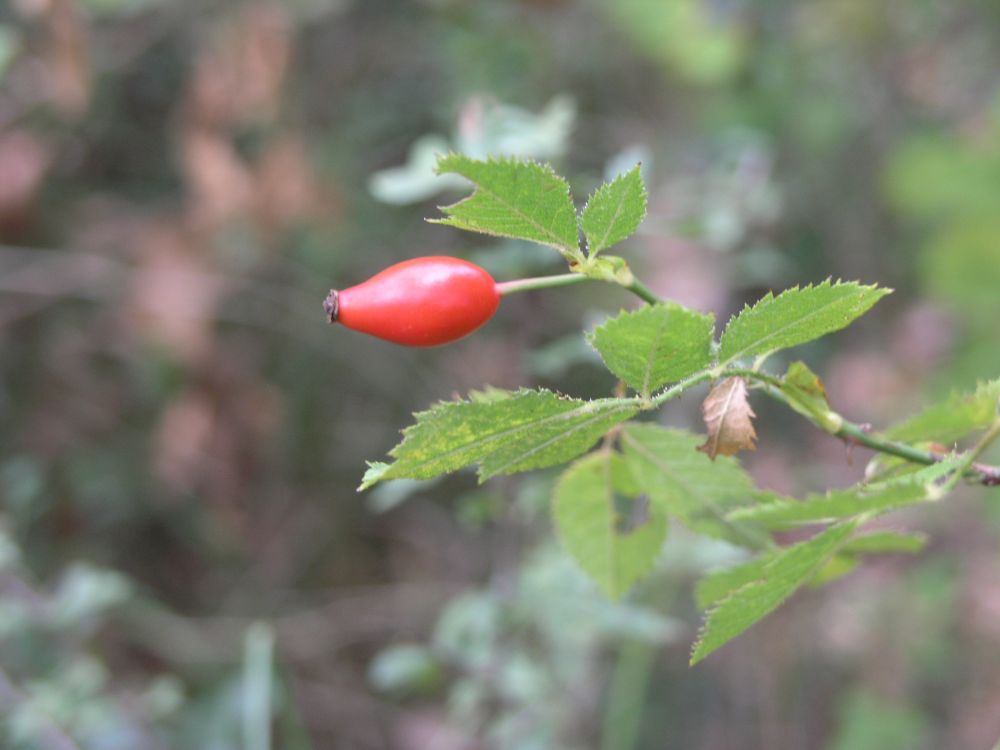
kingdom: Plantae
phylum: Tracheophyta
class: Magnoliopsida
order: Rosales
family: Rosaceae
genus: Rosa
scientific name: Rosa canina
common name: Dog rose
